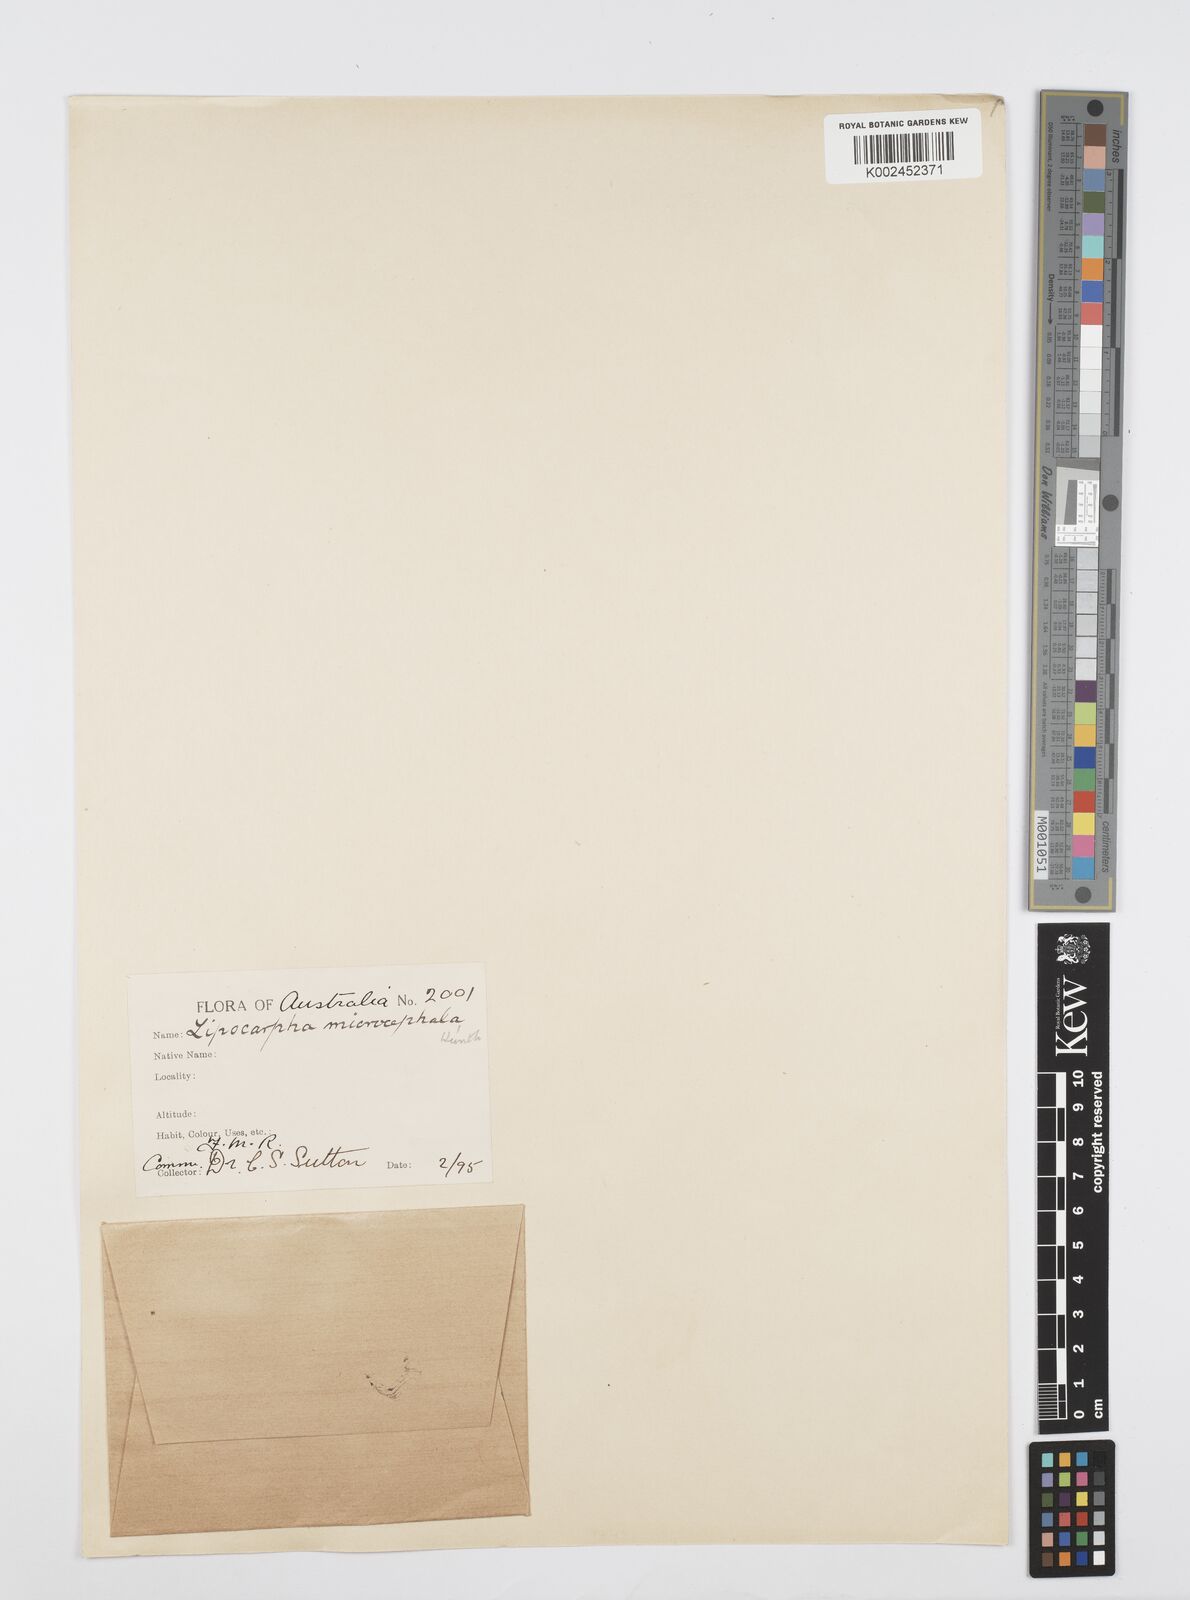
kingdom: Plantae
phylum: Tracheophyta
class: Liliopsida
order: Poales
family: Cyperaceae
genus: Cyperus
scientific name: Cyperus microcephalus
